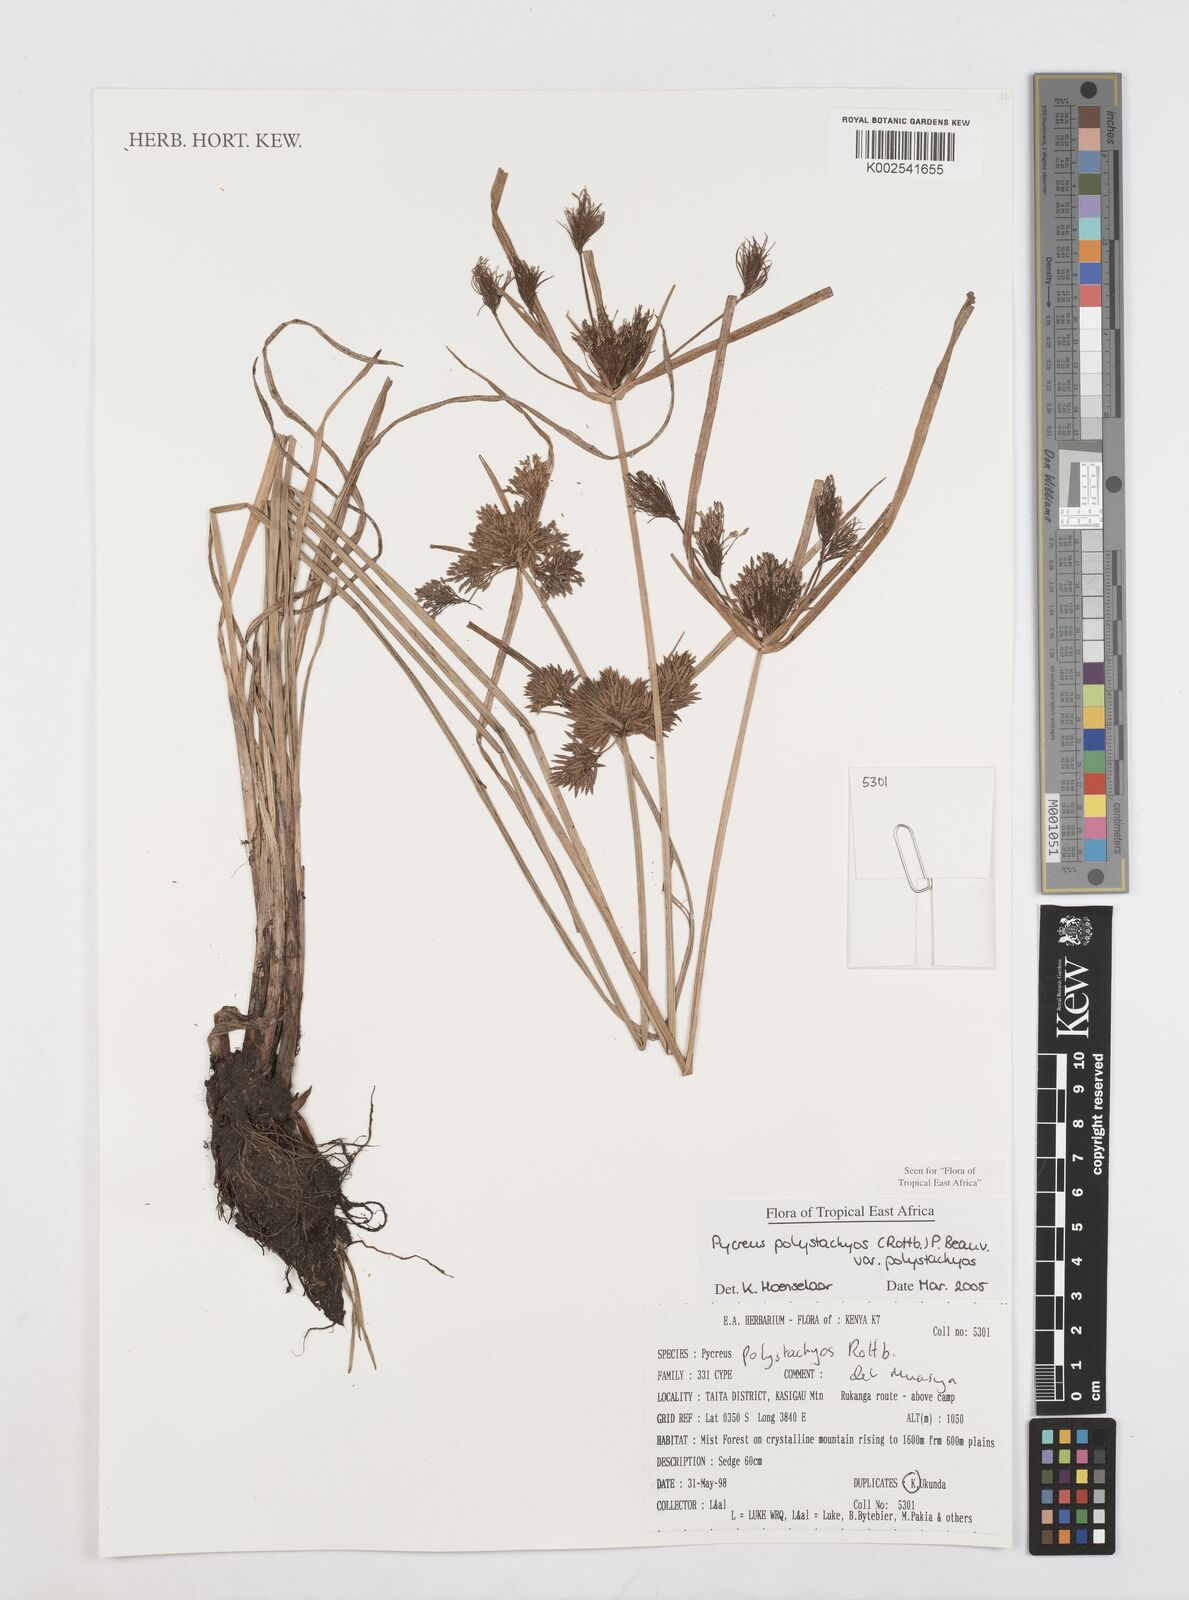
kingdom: Plantae
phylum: Tracheophyta
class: Liliopsida
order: Poales
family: Cyperaceae
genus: Cyperus
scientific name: Cyperus polystachyos
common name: Bunchy flat sedge
